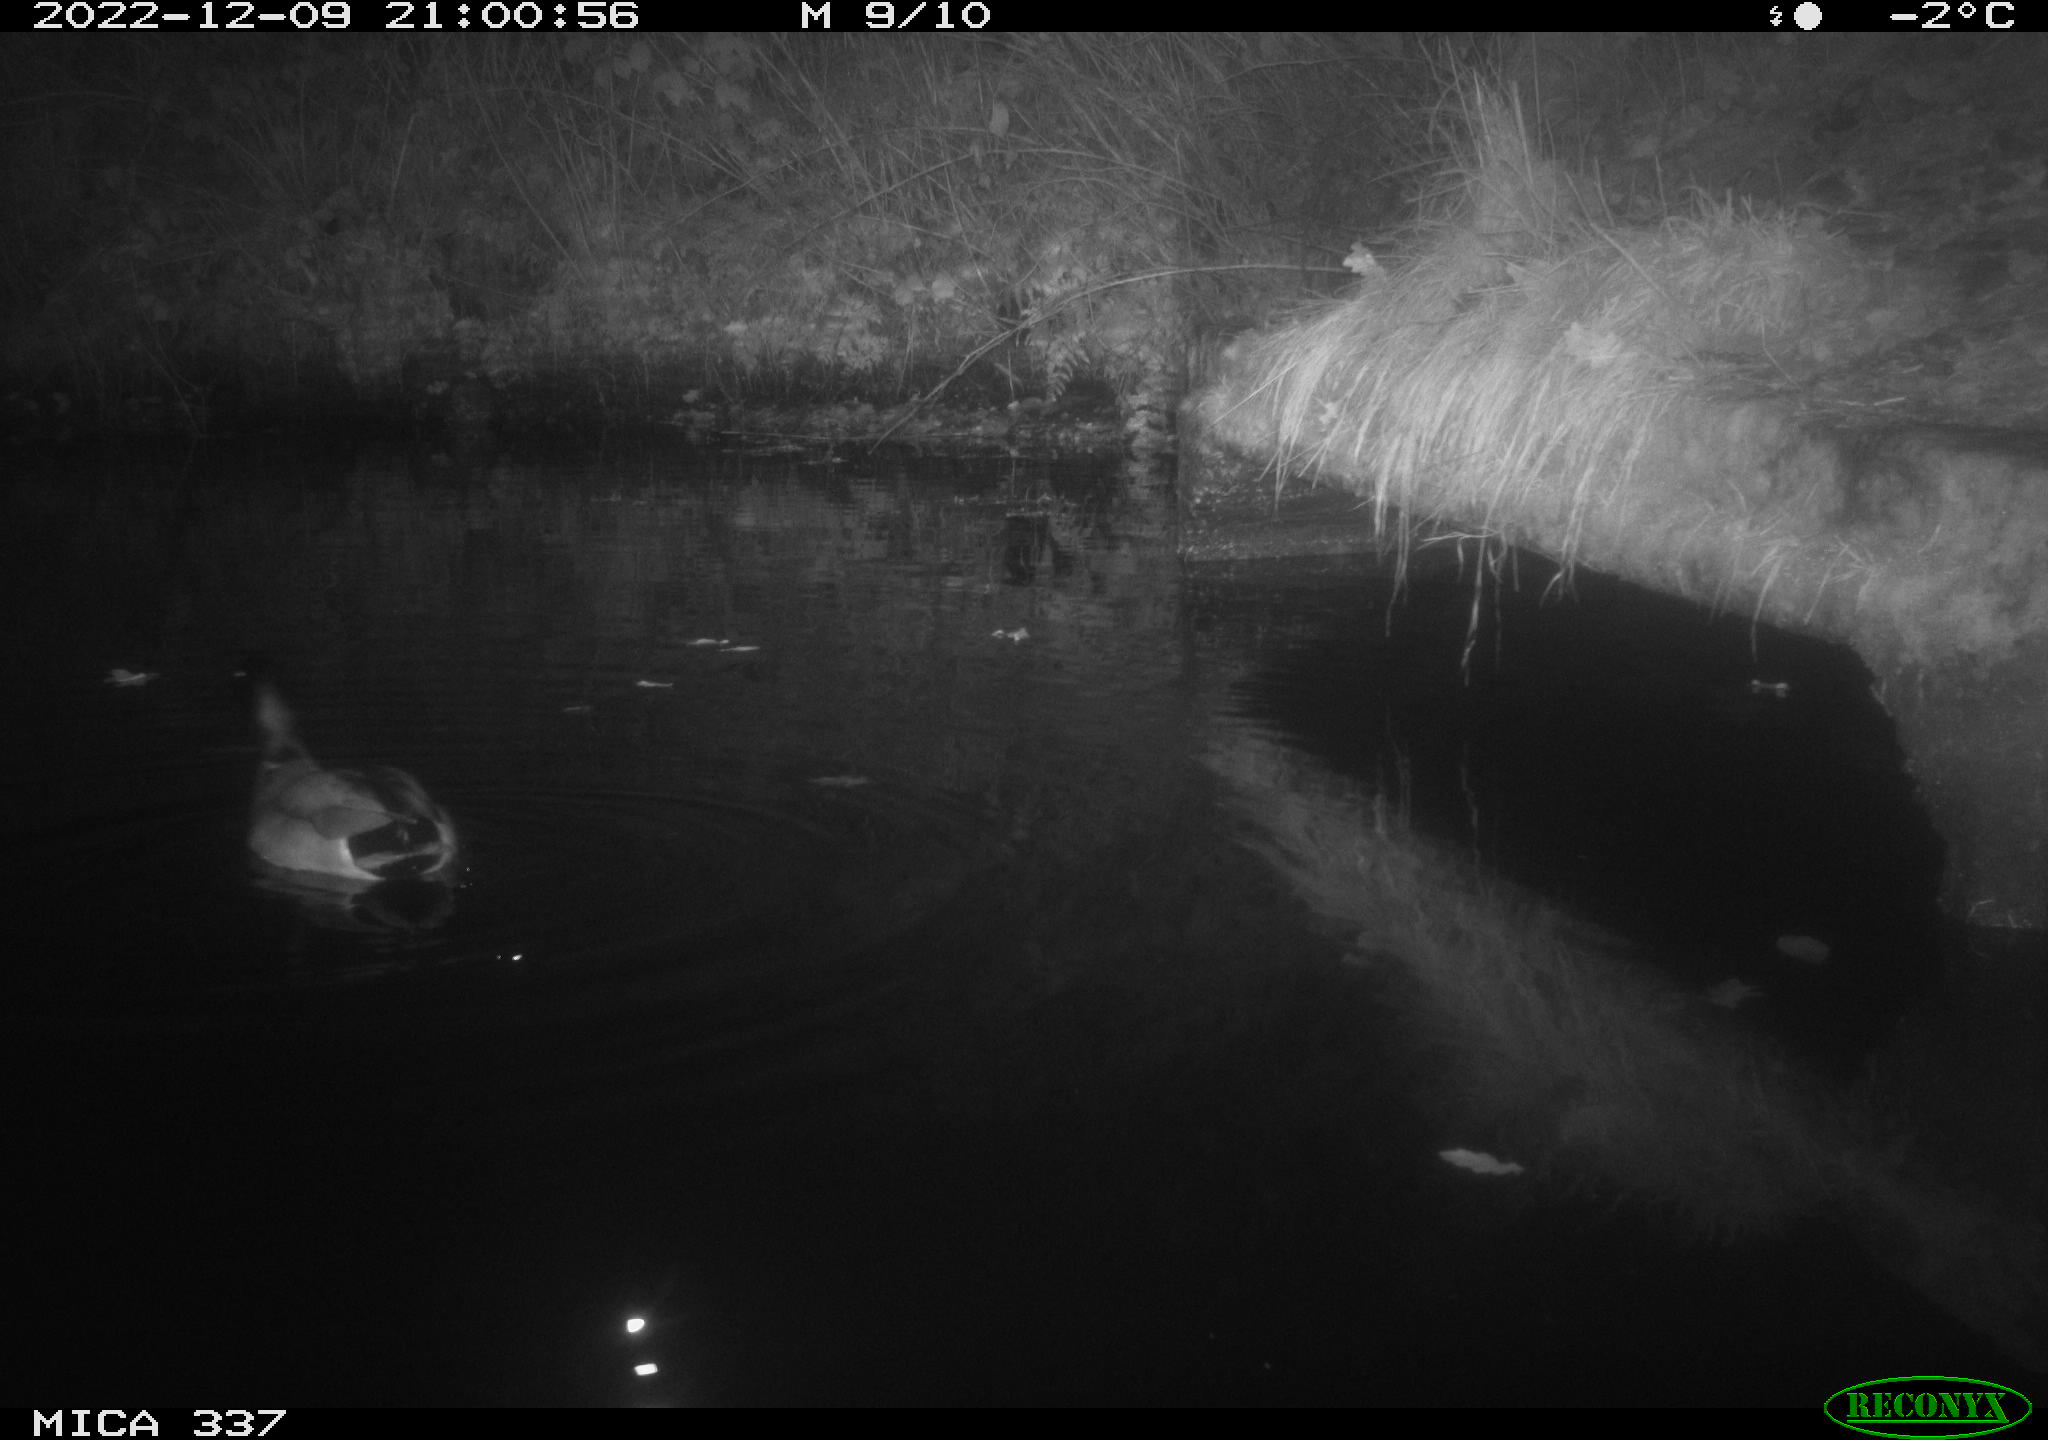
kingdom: Animalia
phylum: Chordata
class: Aves
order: Anseriformes
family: Anatidae
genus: Anas
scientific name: Anas
